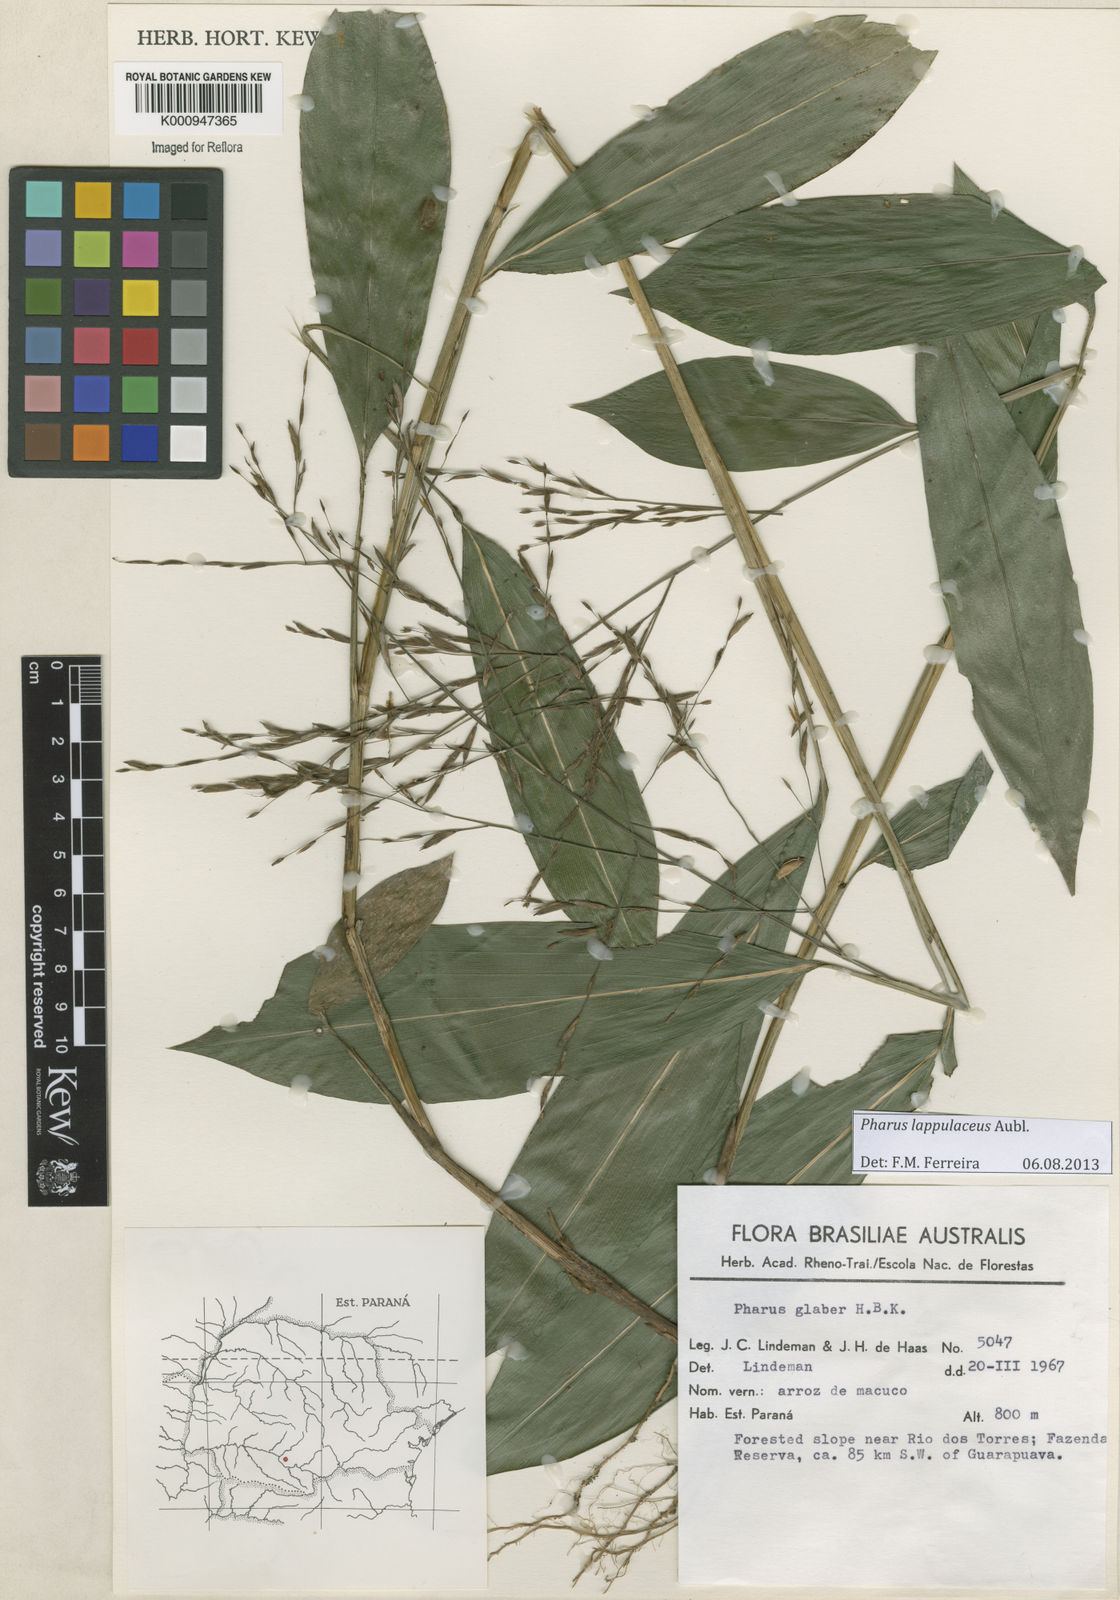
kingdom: Plantae
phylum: Tracheophyta
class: Liliopsida
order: Poales
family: Poaceae
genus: Pharus
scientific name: Pharus lappulaceus
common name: Creeping leafstalk grass
